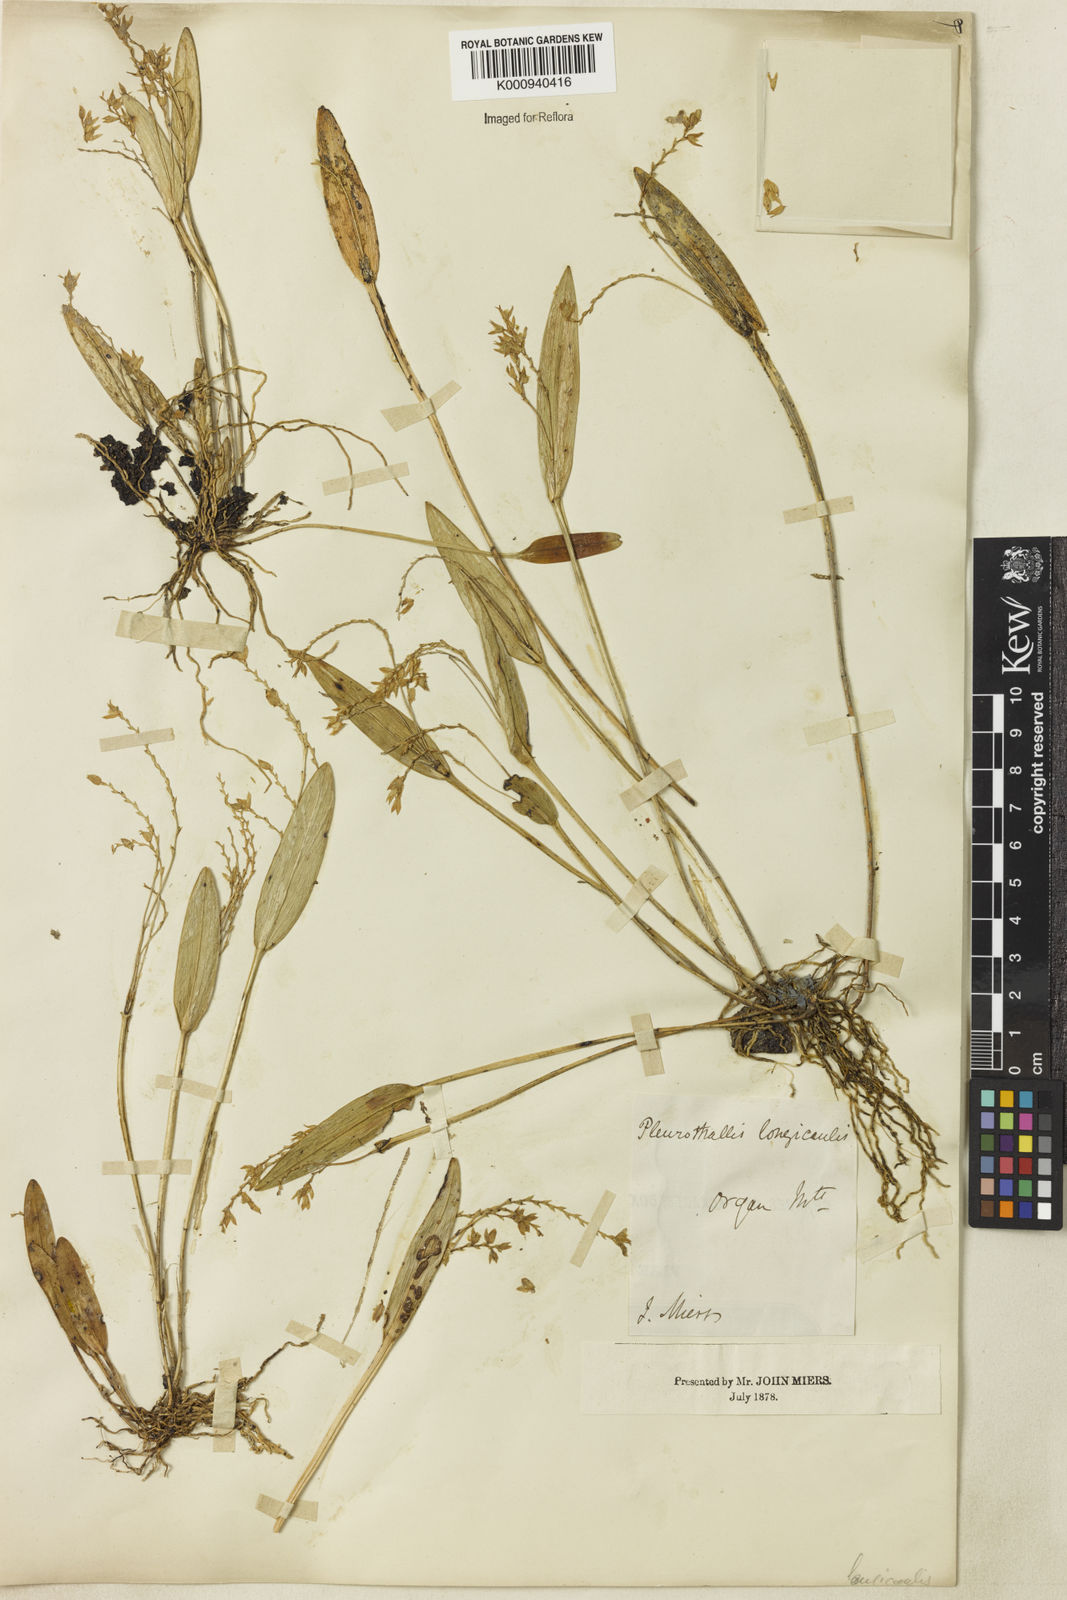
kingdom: Plantae
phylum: Tracheophyta
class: Liliopsida
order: Asparagales
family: Orchidaceae
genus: Acianthera
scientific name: Acianthera capillaris
